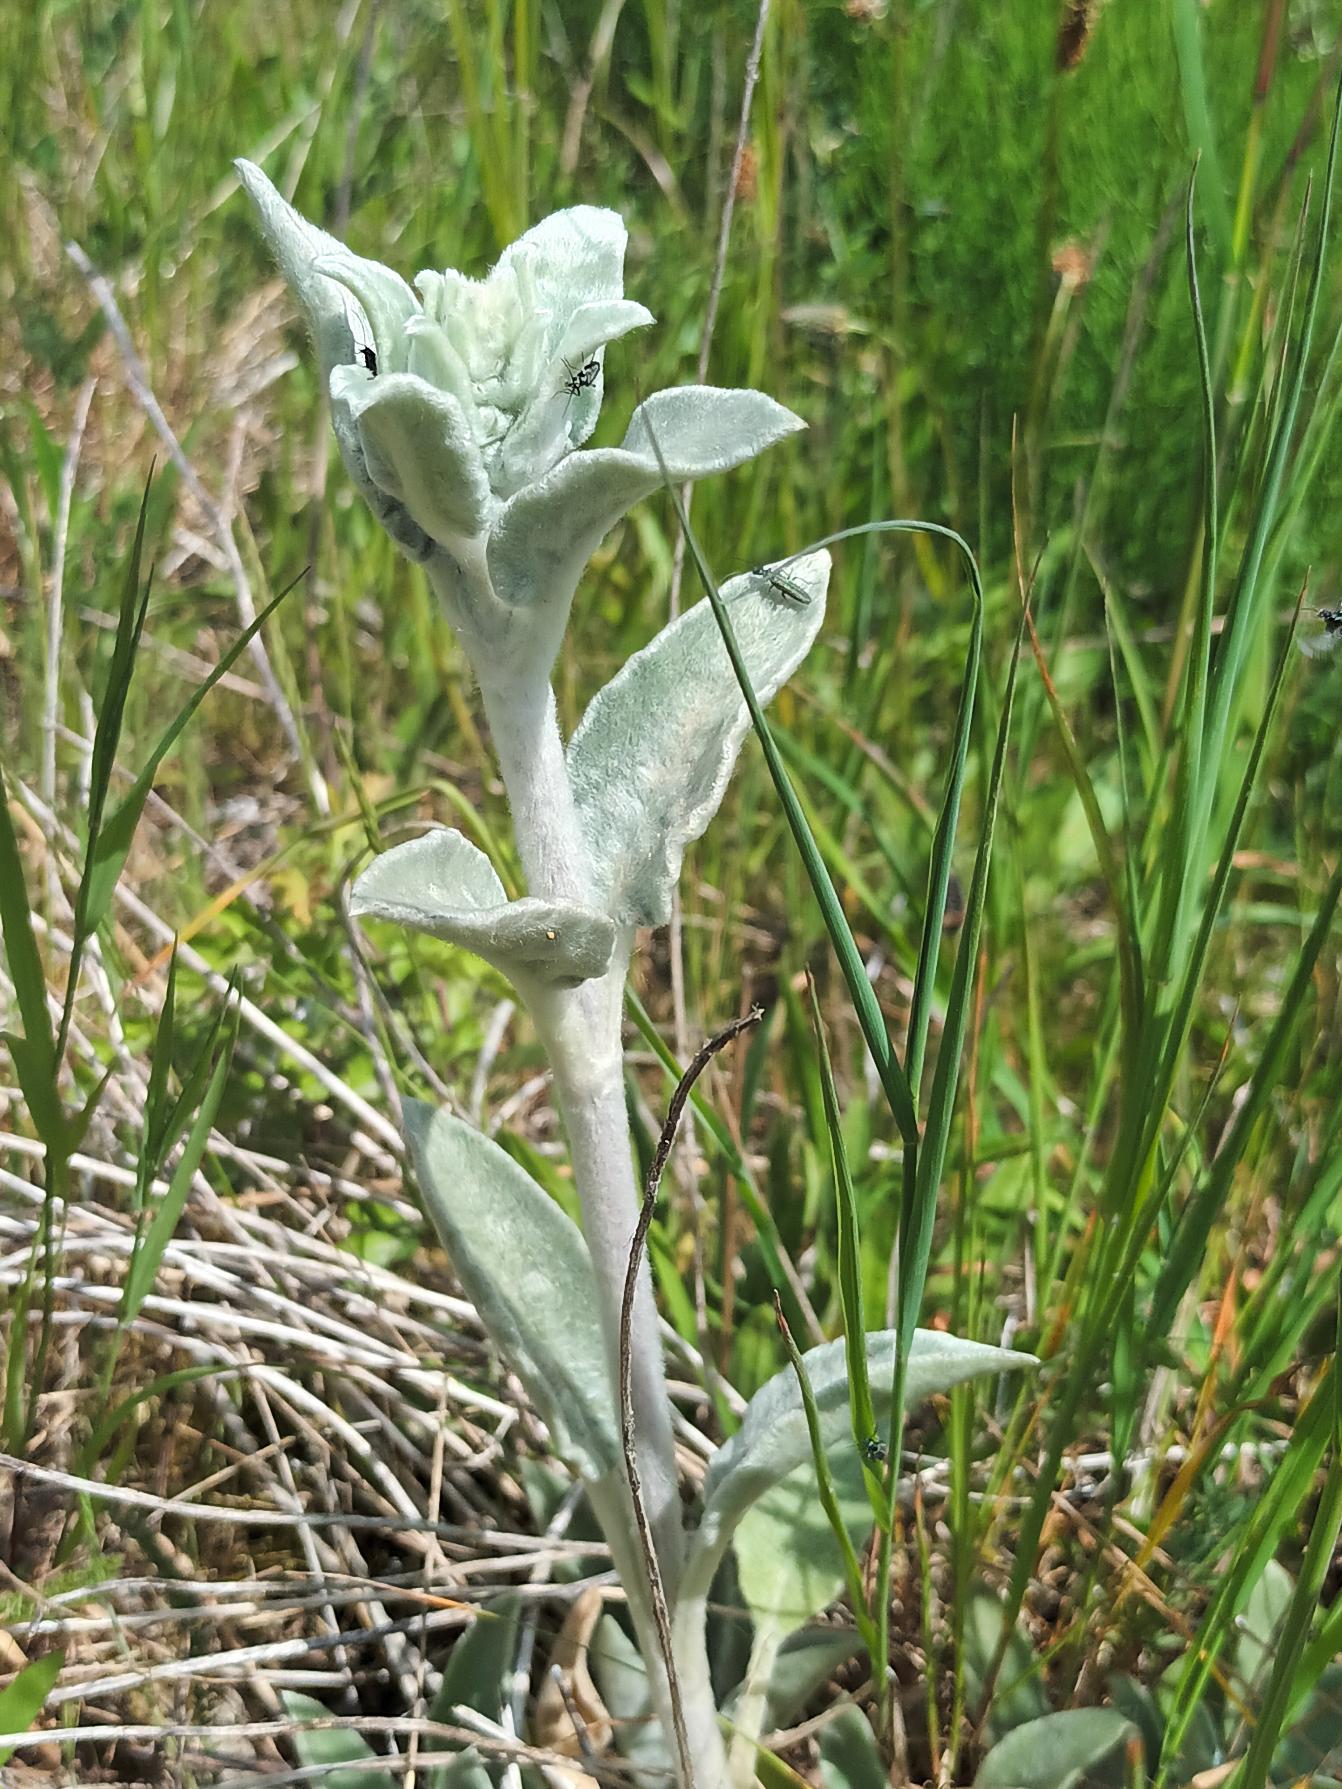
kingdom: Plantae
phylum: Tracheophyta
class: Magnoliopsida
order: Caryophyllales
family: Caryophyllaceae
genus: Silene
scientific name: Silene coronaria
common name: Fiksernellike
